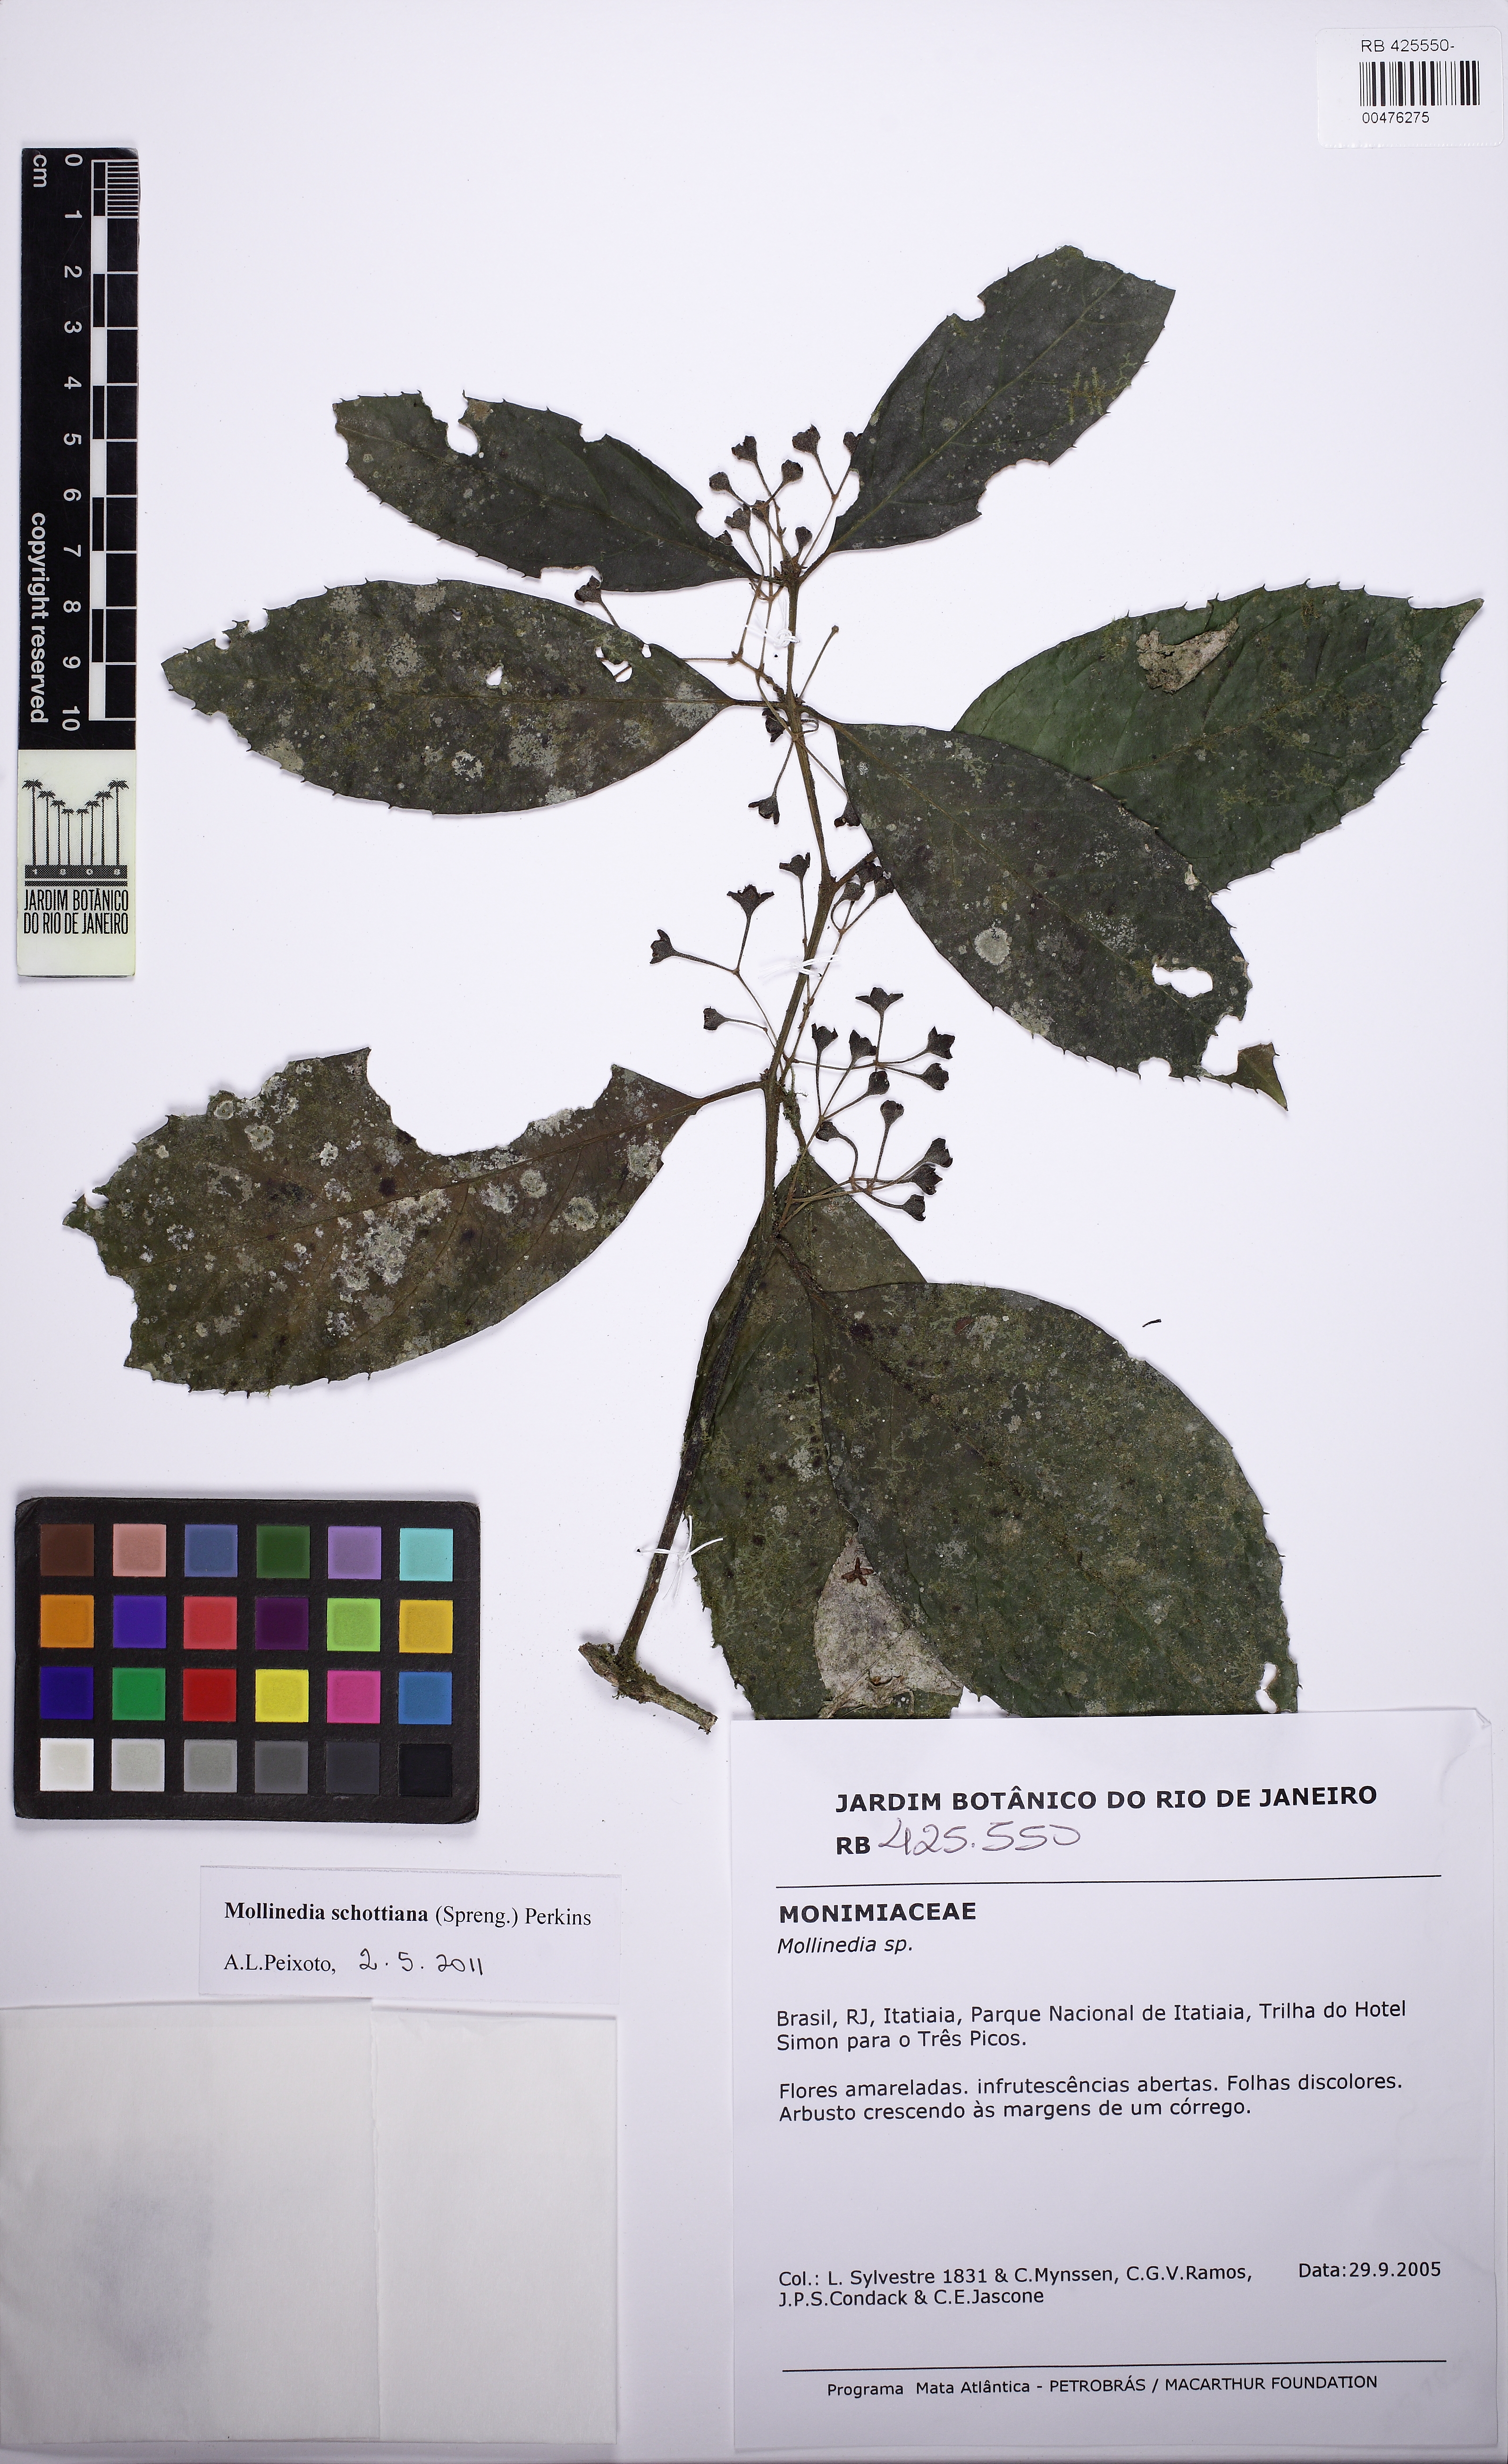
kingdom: Plantae
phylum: Tracheophyta
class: Magnoliopsida
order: Laurales
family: Monimiaceae
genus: Mollinedia
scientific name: Mollinedia umbellata
